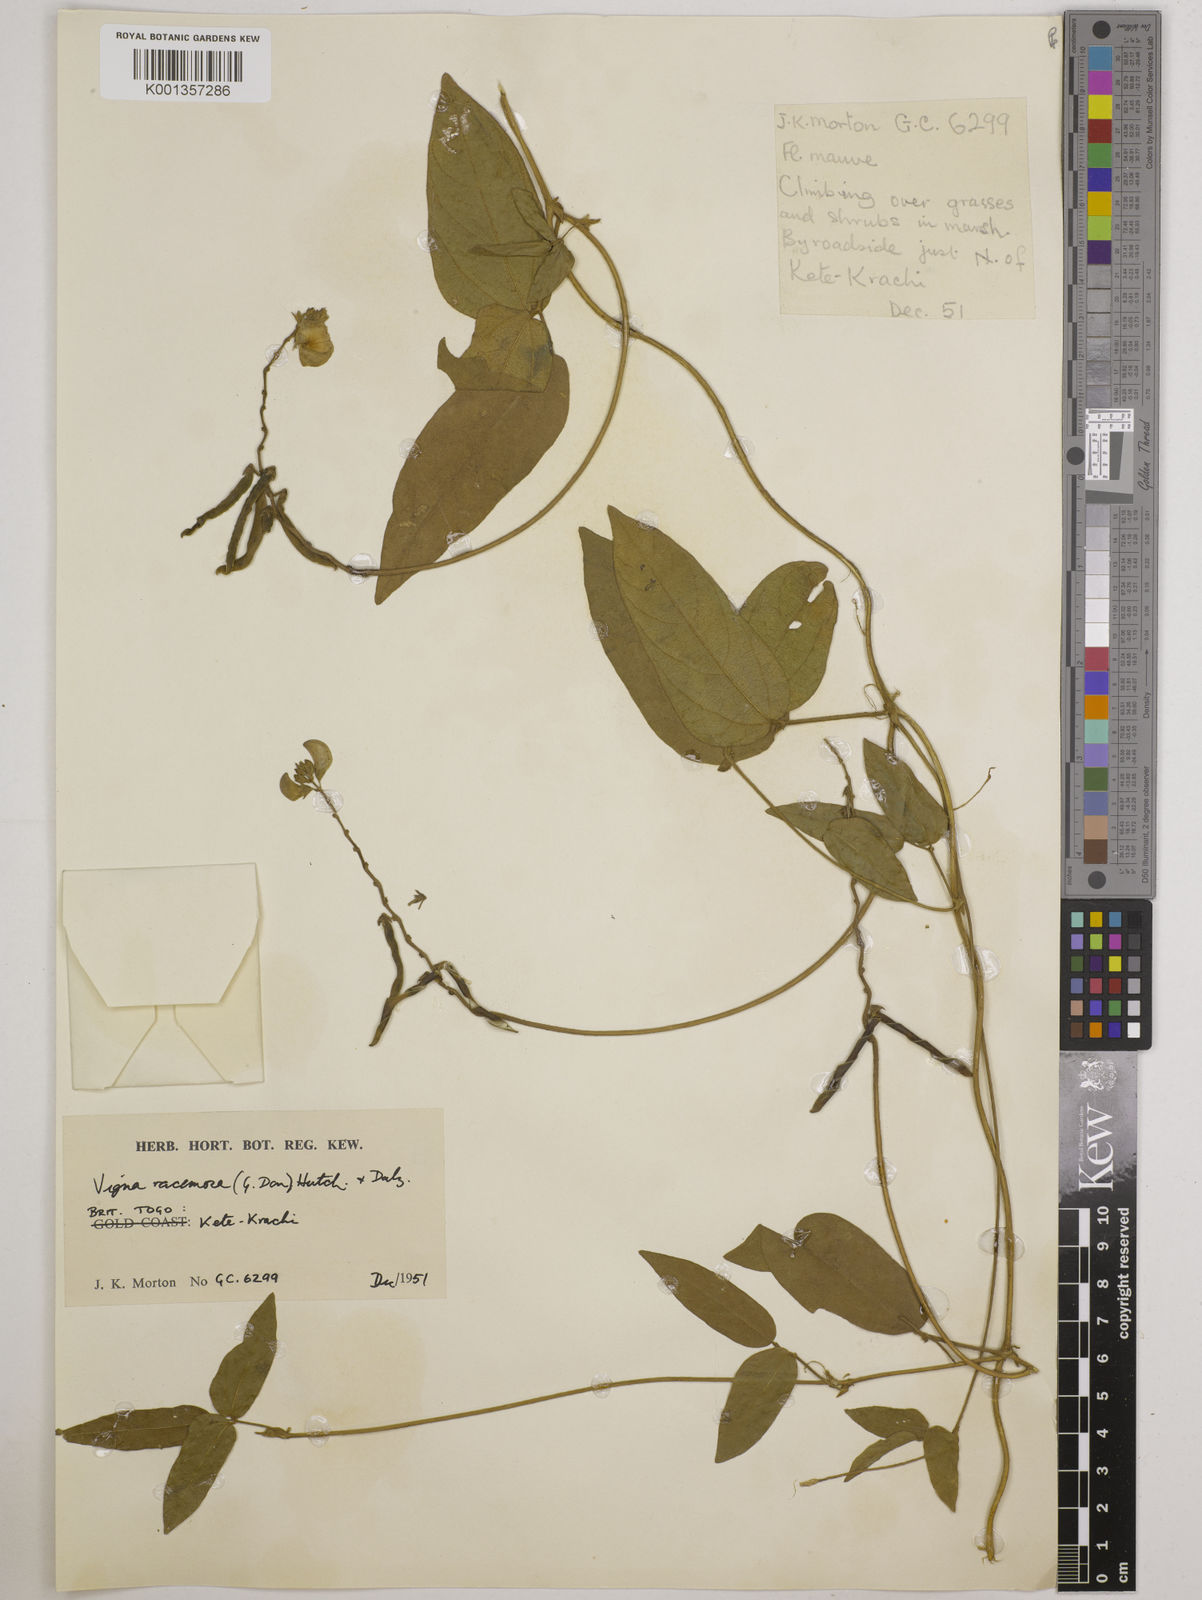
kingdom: Plantae
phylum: Tracheophyta
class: Magnoliopsida
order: Fabales
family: Fabaceae
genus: Vigna
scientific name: Vigna racemosa
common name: Beans not eaten
